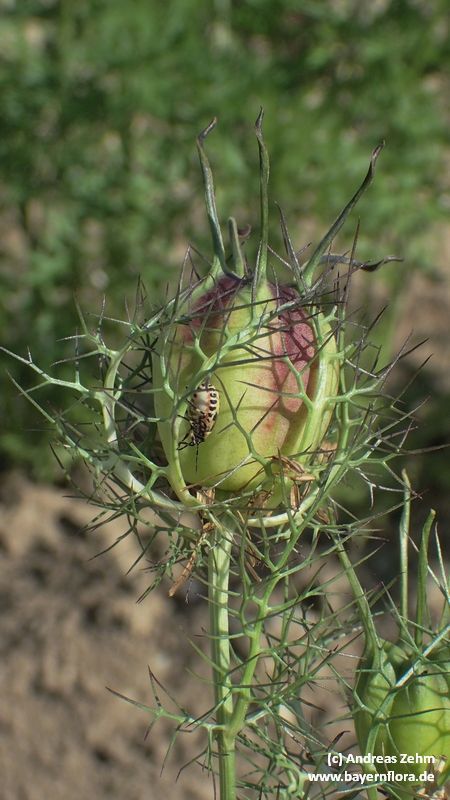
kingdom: Plantae
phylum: Tracheophyta
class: Magnoliopsida
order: Ranunculales
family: Ranunculaceae
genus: Nigella
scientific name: Nigella damascena
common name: Love-in-a-mist
